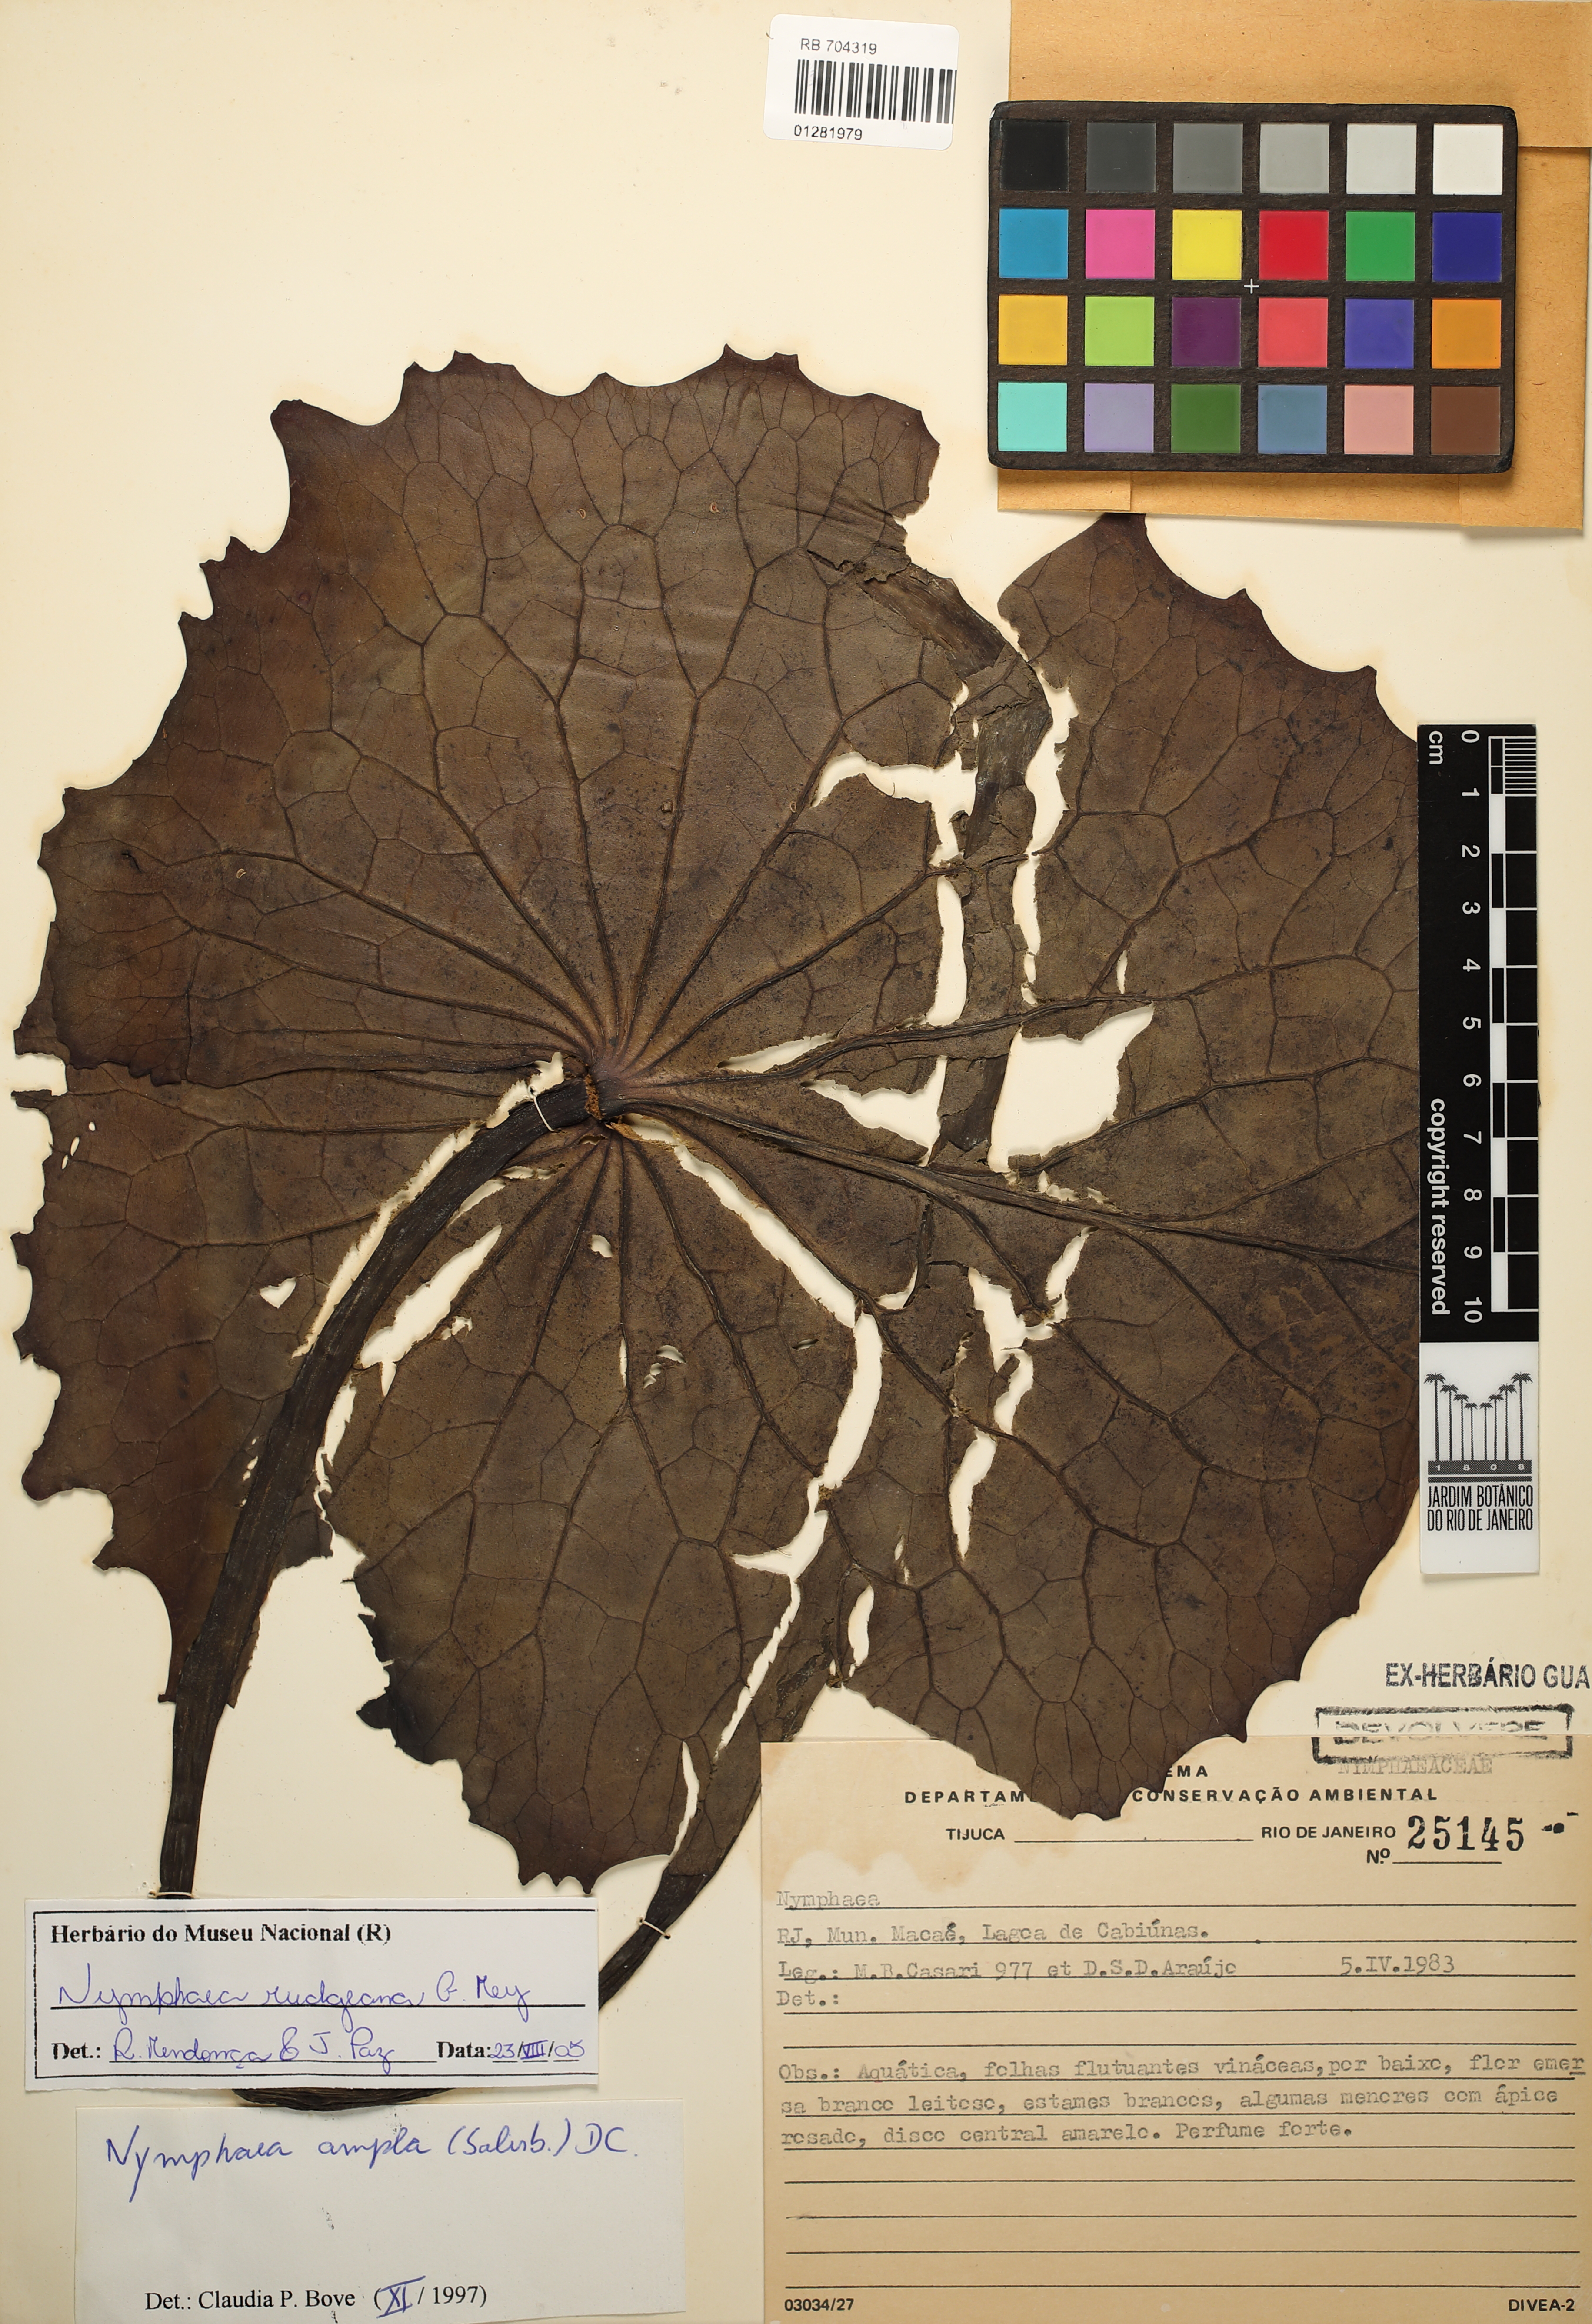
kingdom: Plantae
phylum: Tracheophyta
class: Magnoliopsida
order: Nymphaeales
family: Nymphaeaceae
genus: Nymphaea
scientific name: Nymphaea rudgeana
